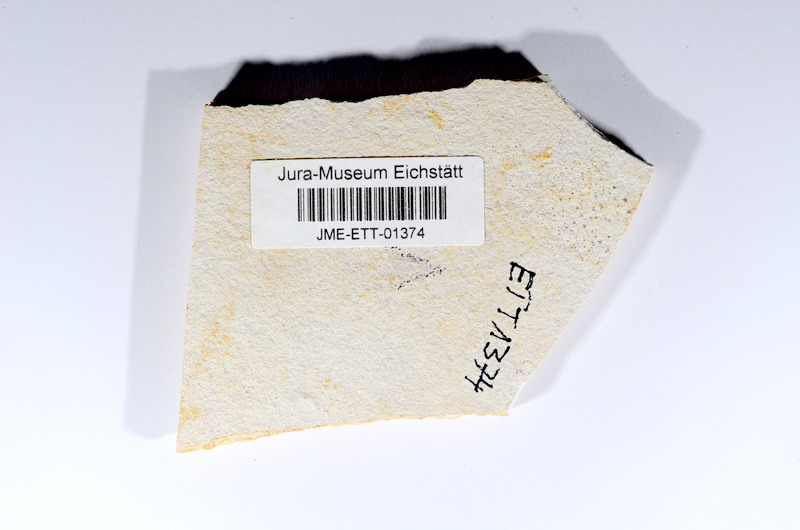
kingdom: Animalia
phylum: Chordata
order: Salmoniformes
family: Orthogonikleithridae
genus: Orthogonikleithrus
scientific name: Orthogonikleithrus hoelli
